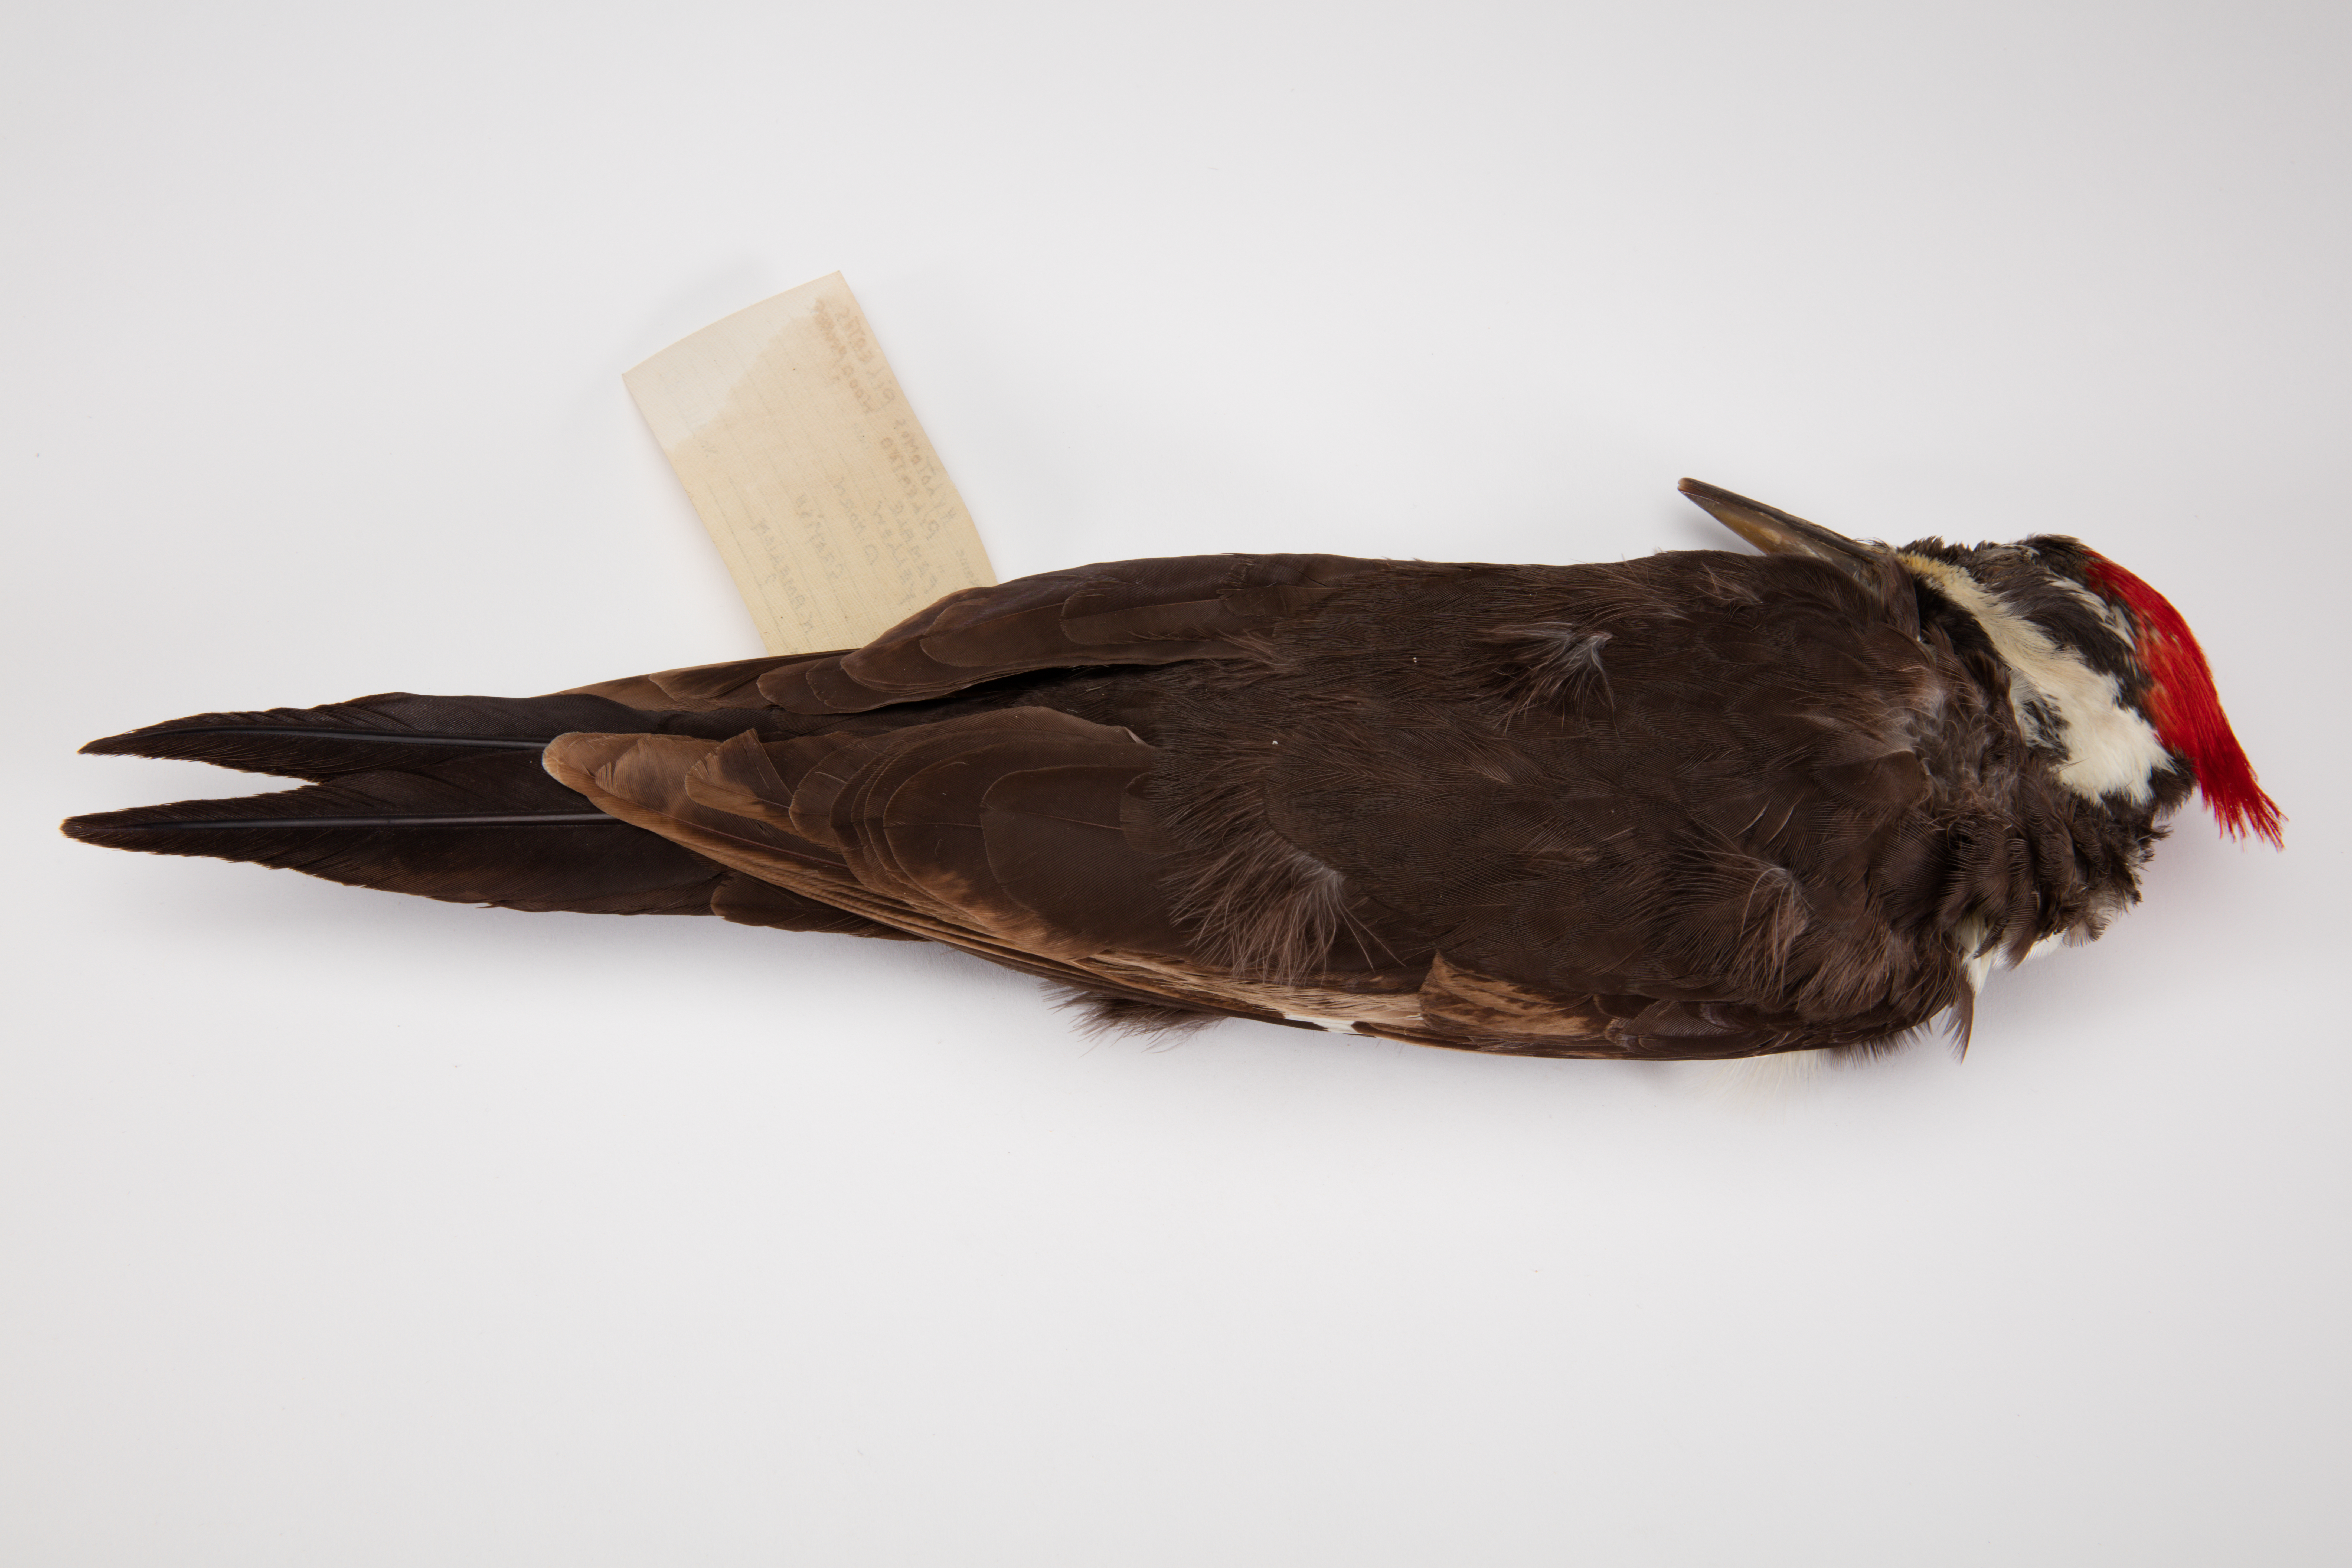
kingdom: Animalia
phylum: Chordata
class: Aves
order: Piciformes
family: Picidae
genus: Dryocopus
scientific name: Dryocopus pileatus
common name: Pileated woodpecker
